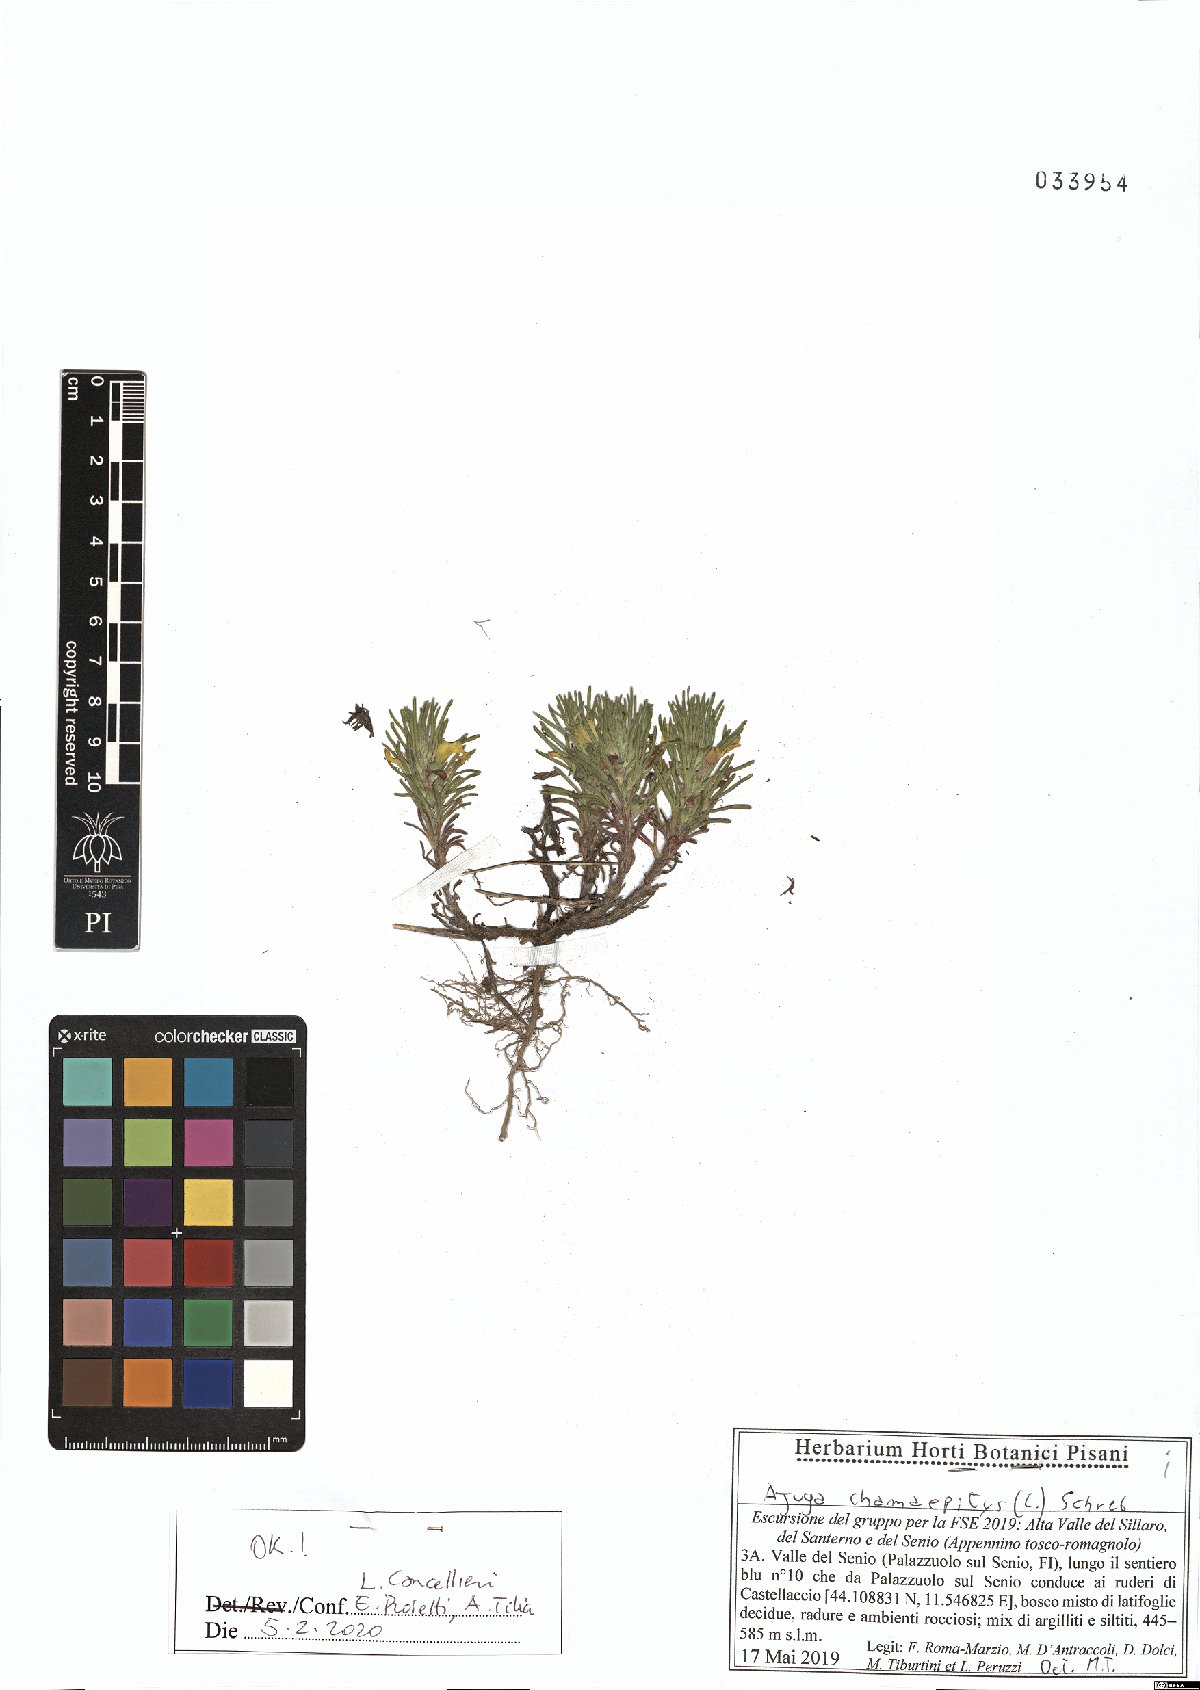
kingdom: Plantae
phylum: Tracheophyta
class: Magnoliopsida
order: Lamiales
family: Lamiaceae
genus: Ajuga
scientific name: Ajuga chamaepitys
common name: Ground-pine
